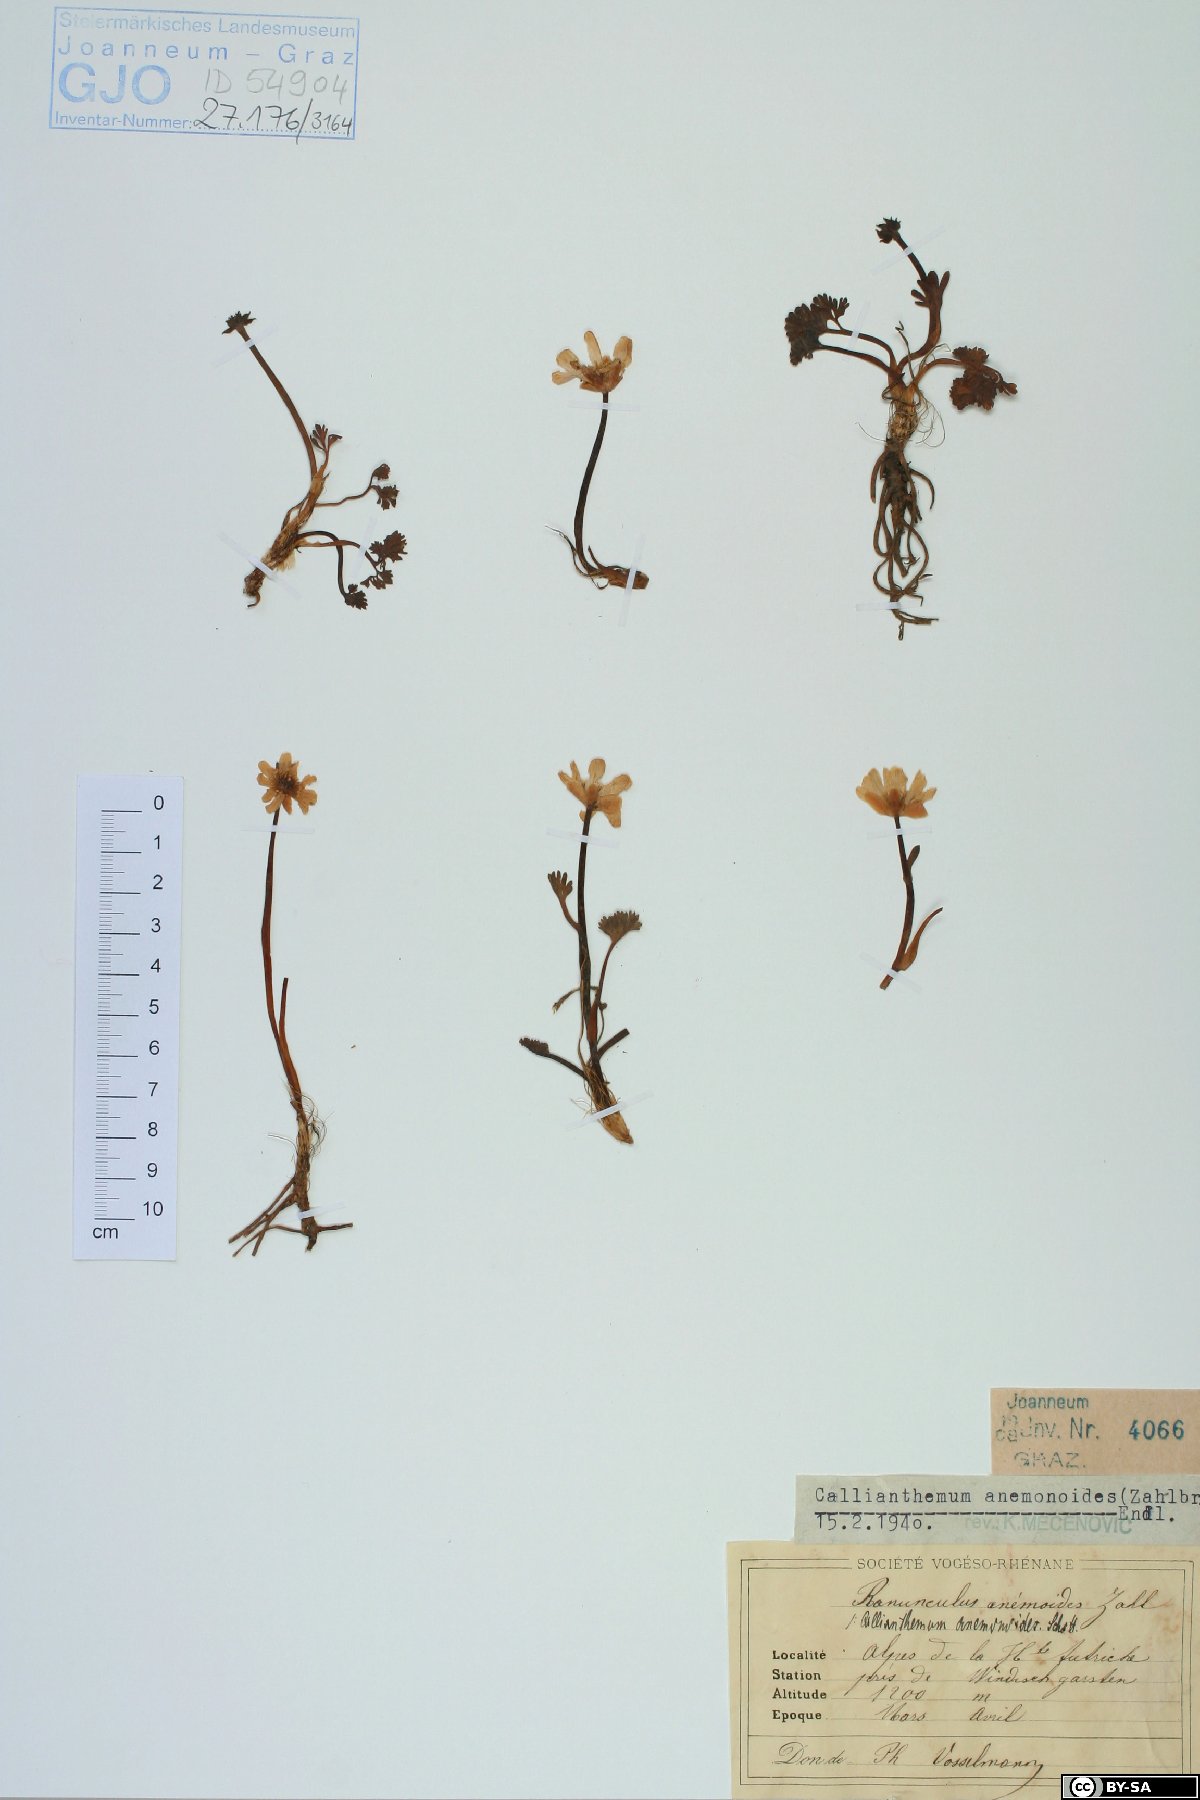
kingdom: Plantae
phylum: Tracheophyta
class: Magnoliopsida
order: Ranunculales
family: Ranunculaceae
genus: Callianthemum
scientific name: Callianthemum anemonoides
